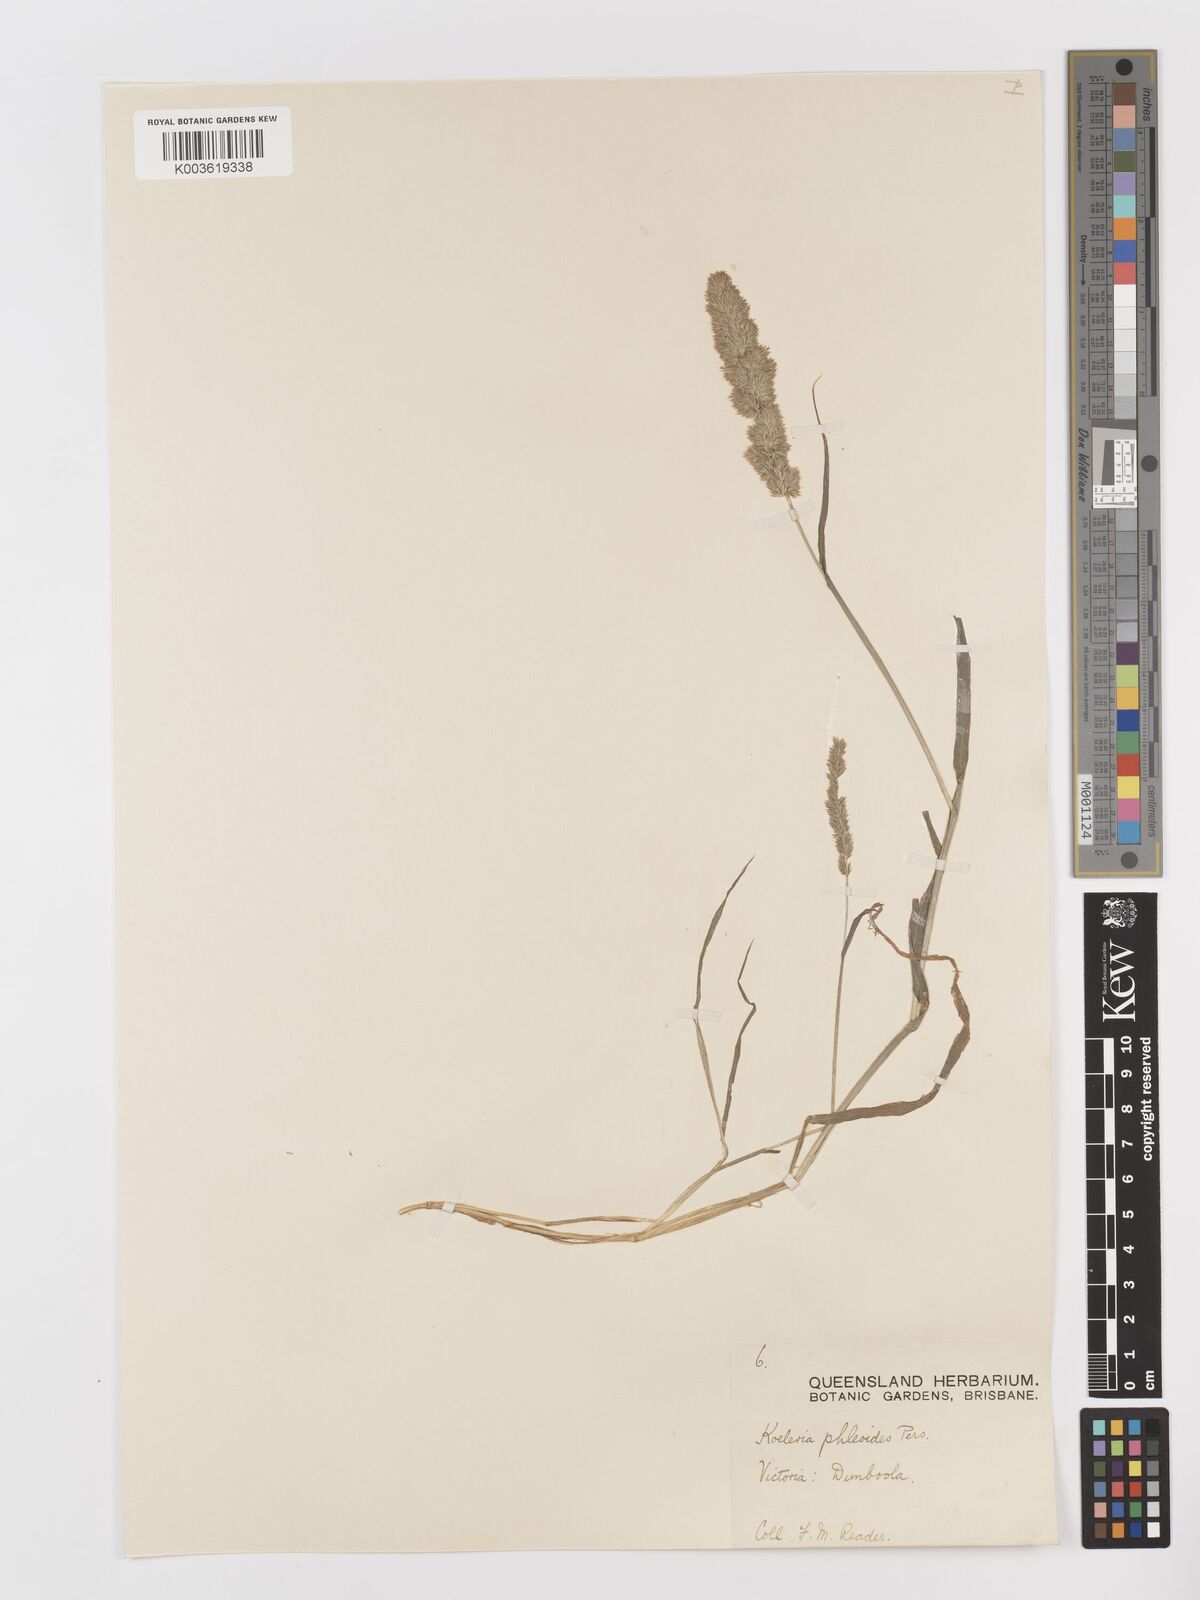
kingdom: Plantae
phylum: Tracheophyta
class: Liliopsida
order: Poales
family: Poaceae
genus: Rostraria
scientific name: Rostraria cristata
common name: Mediterranean hair-grass
